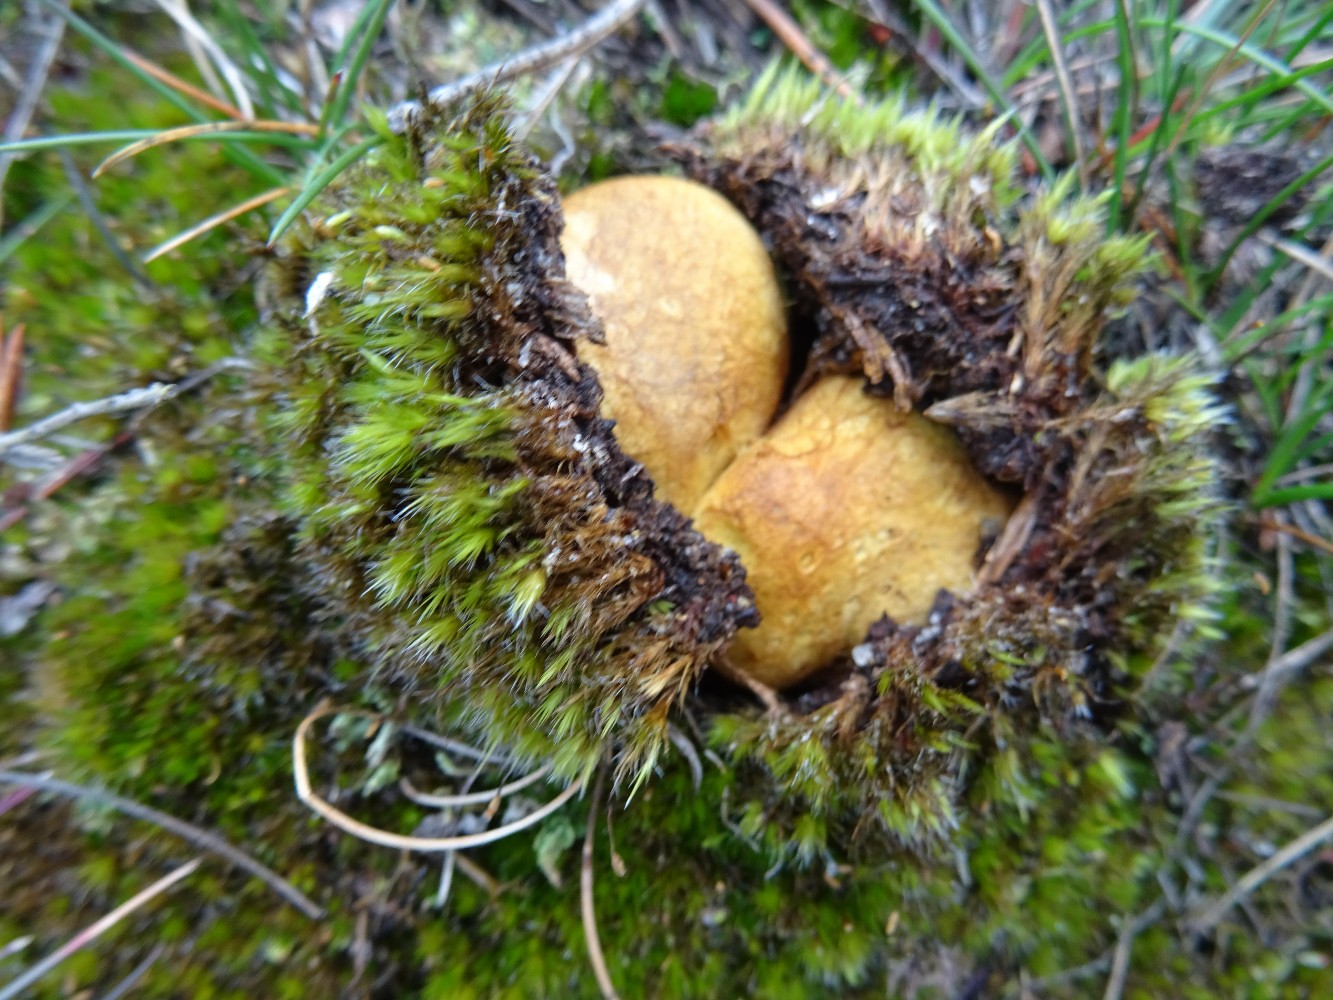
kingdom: Fungi
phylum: Basidiomycota
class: Agaricomycetes
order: Boletales
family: Rhizopogonaceae
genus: Rhizopogon
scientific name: Rhizopogon obtextus
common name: gul skægtrøffel
